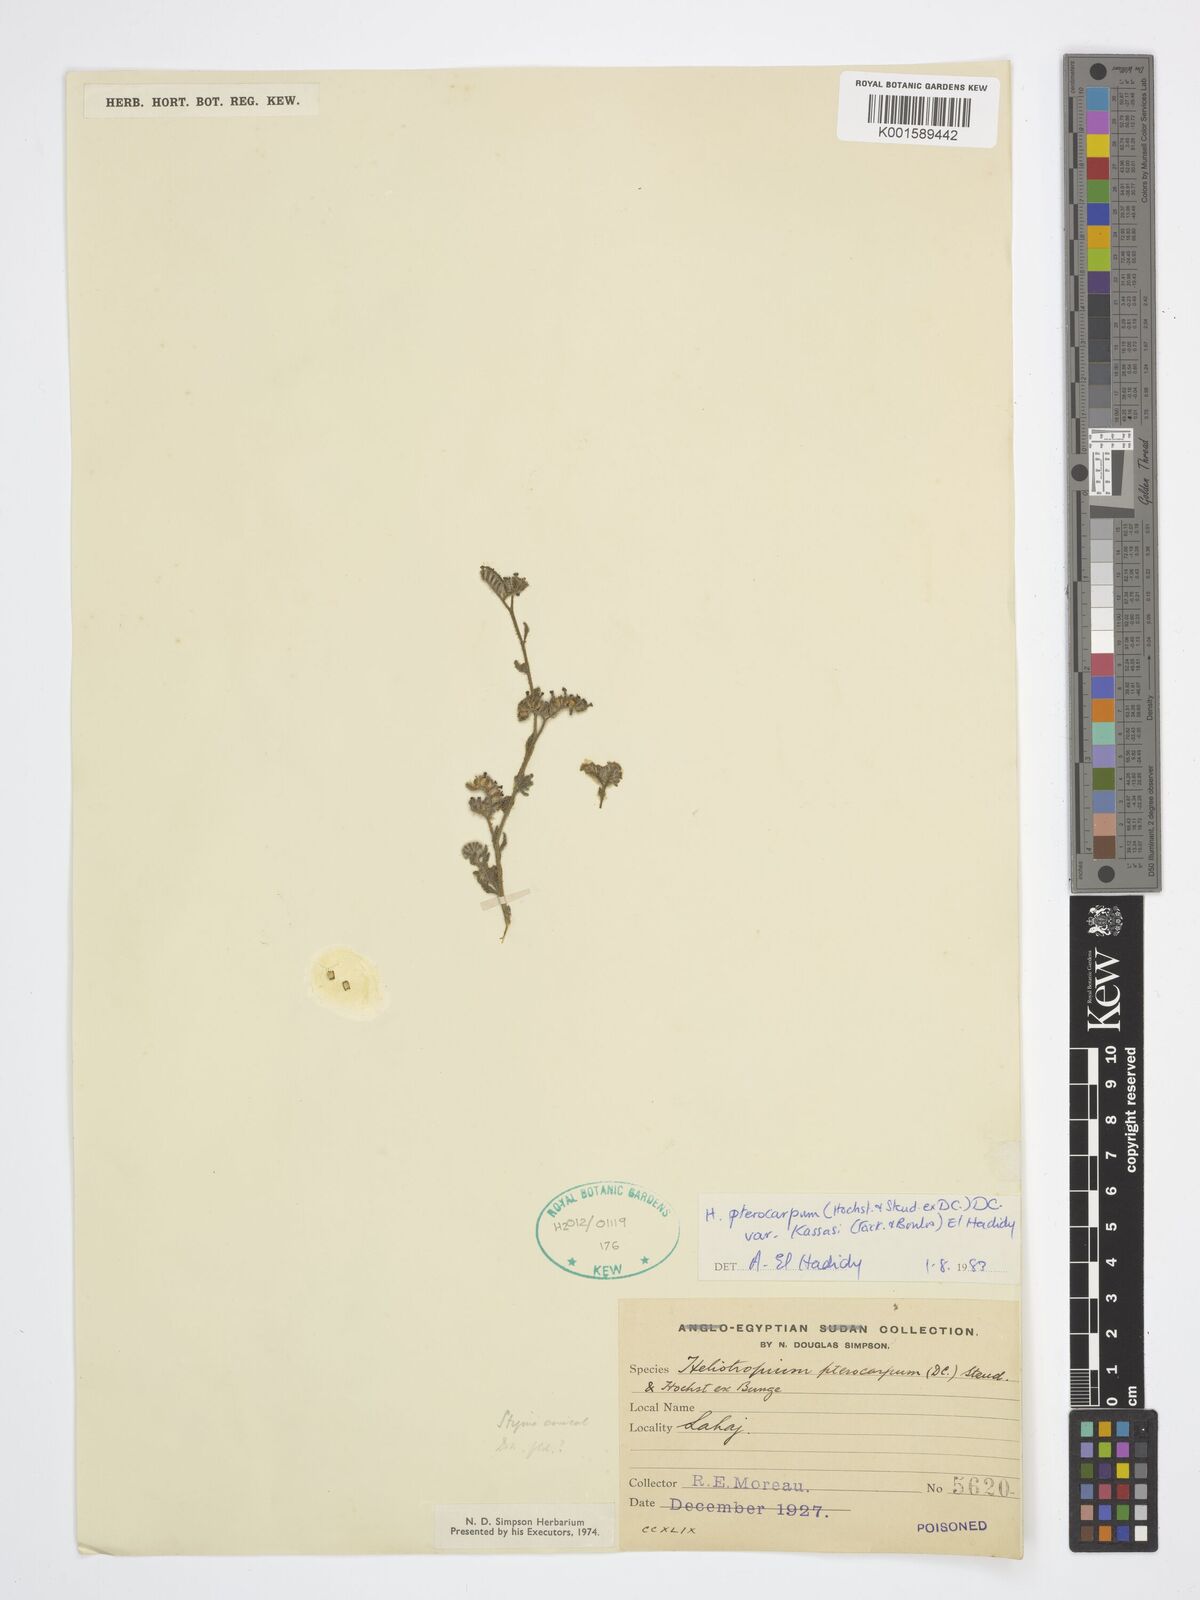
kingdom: Plantae
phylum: Tracheophyta
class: Magnoliopsida
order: Boraginales
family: Heliotropiaceae
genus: Heliotropium
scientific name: Heliotropium pterocarpum
